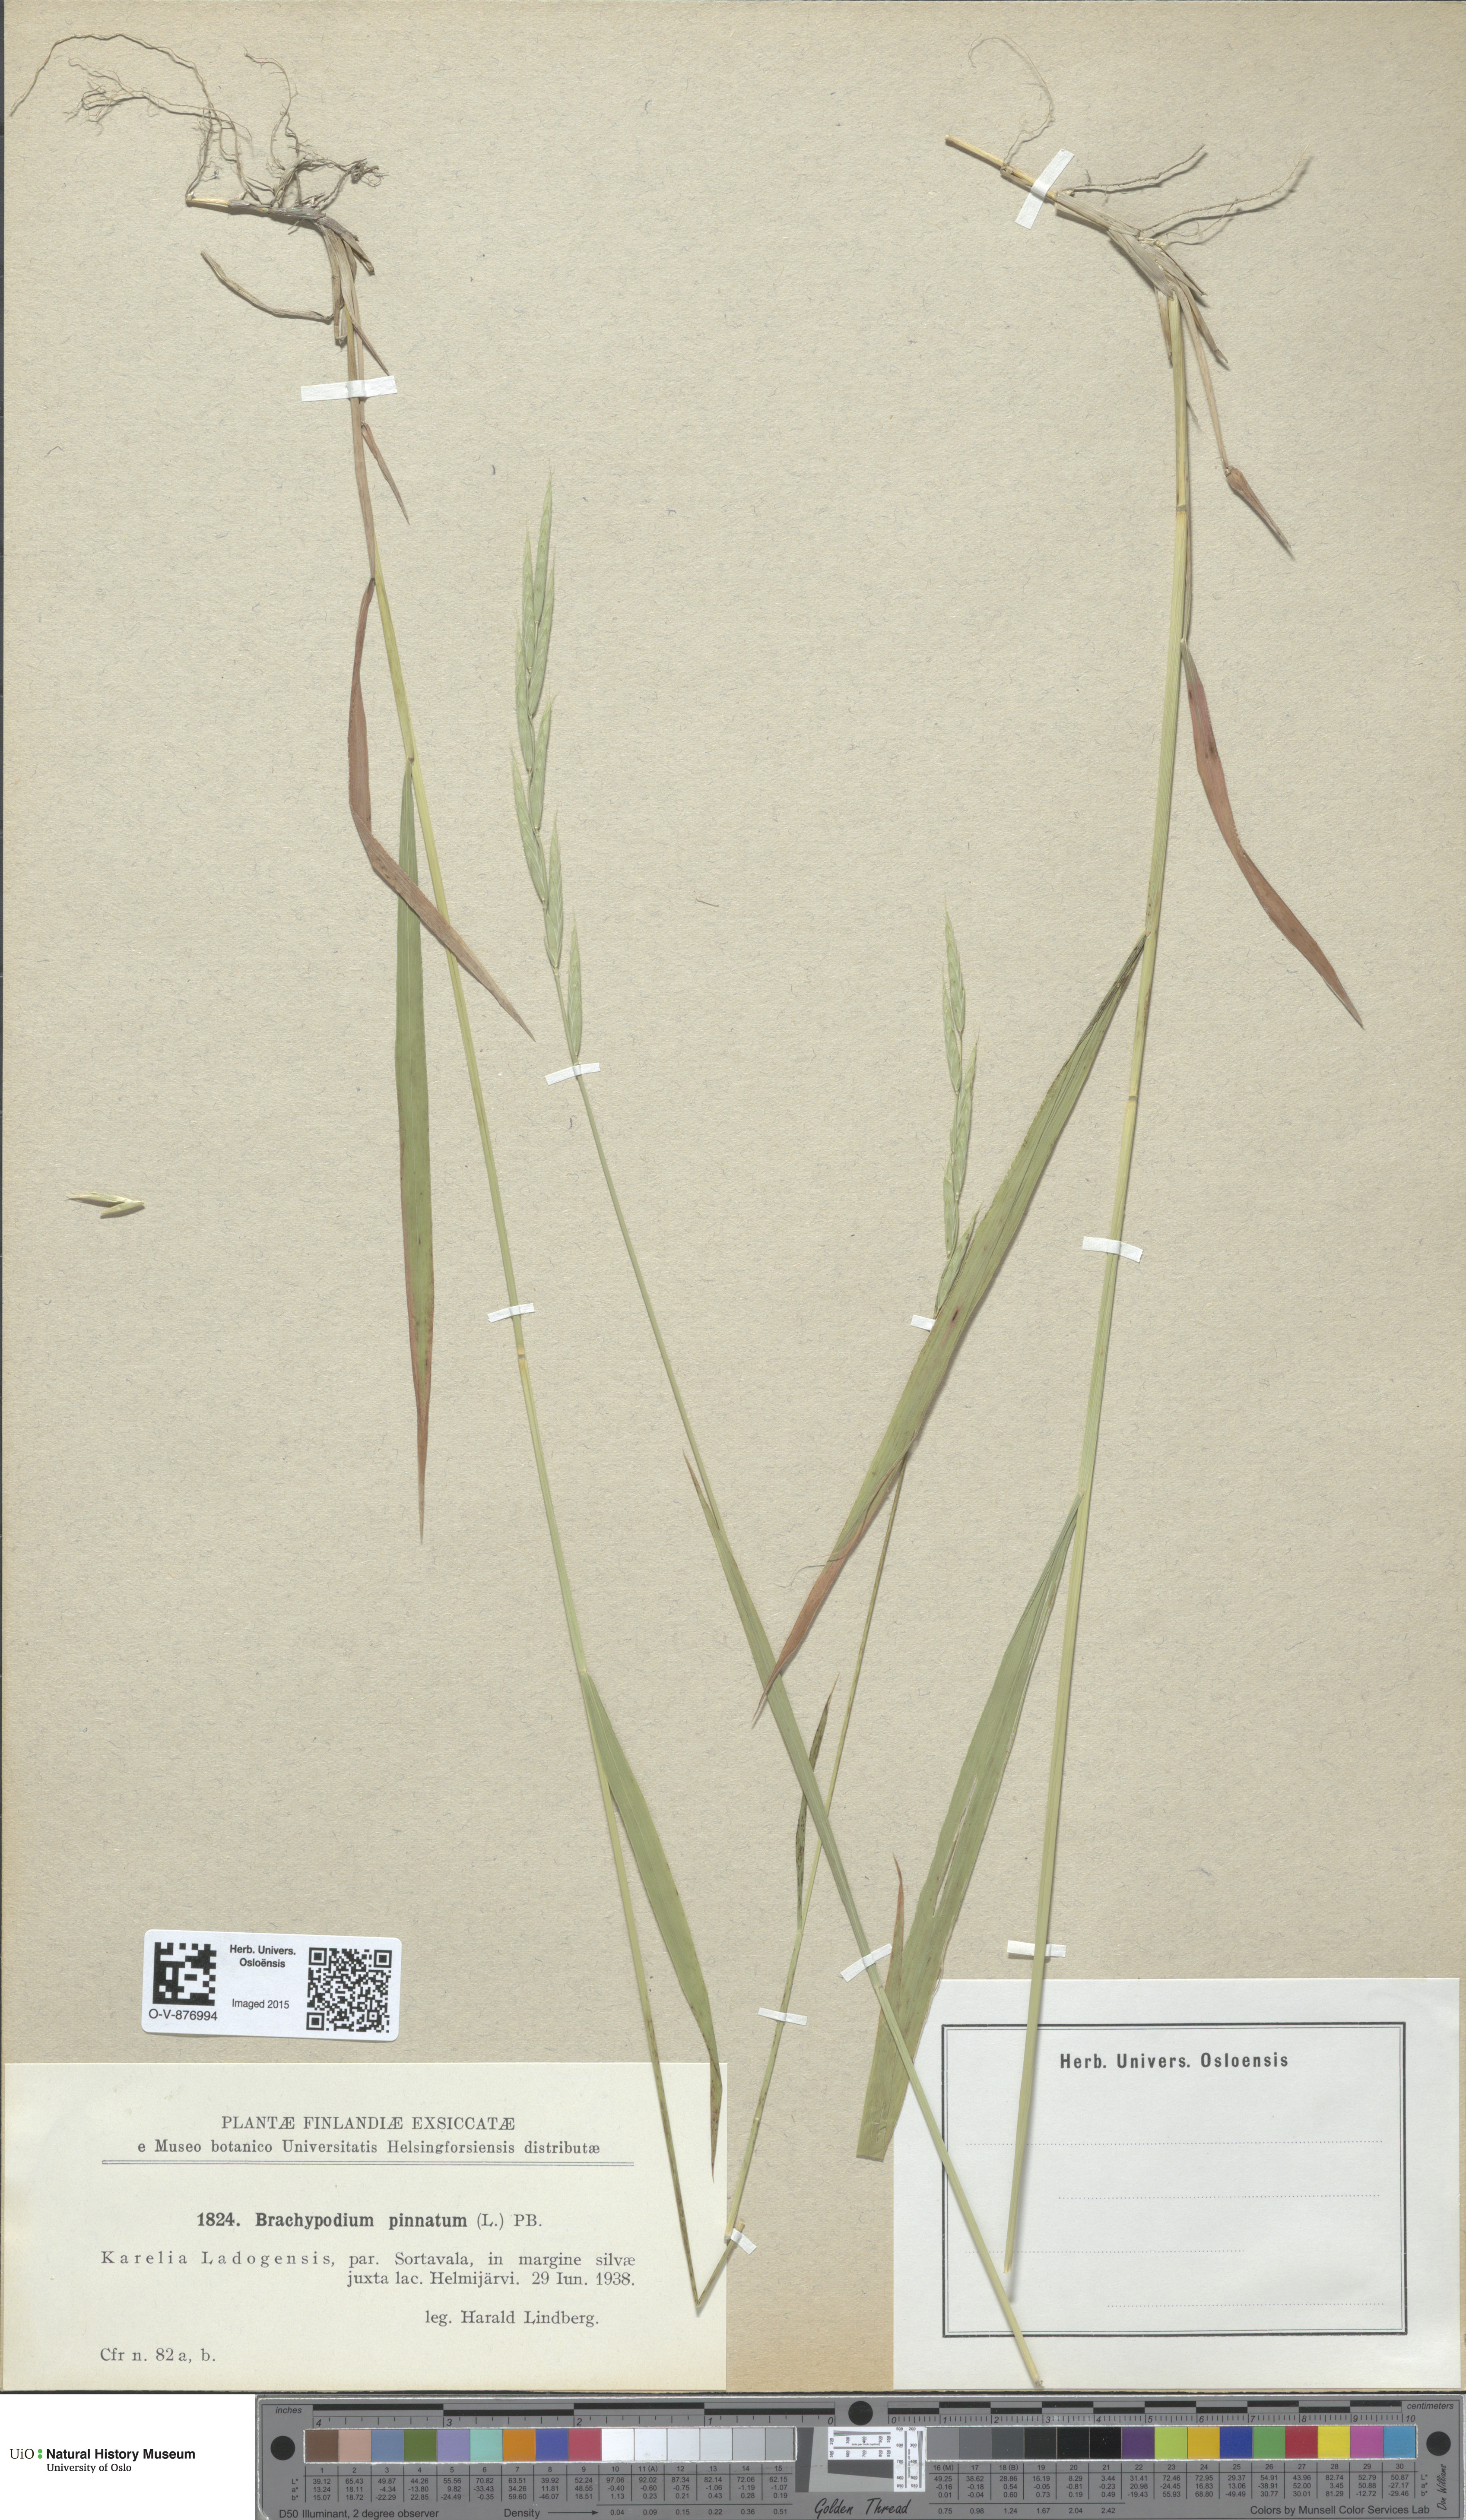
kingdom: Plantae
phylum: Tracheophyta
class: Liliopsida
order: Poales
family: Poaceae
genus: Brachypodium
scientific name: Brachypodium pinnatum
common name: Tor grass
